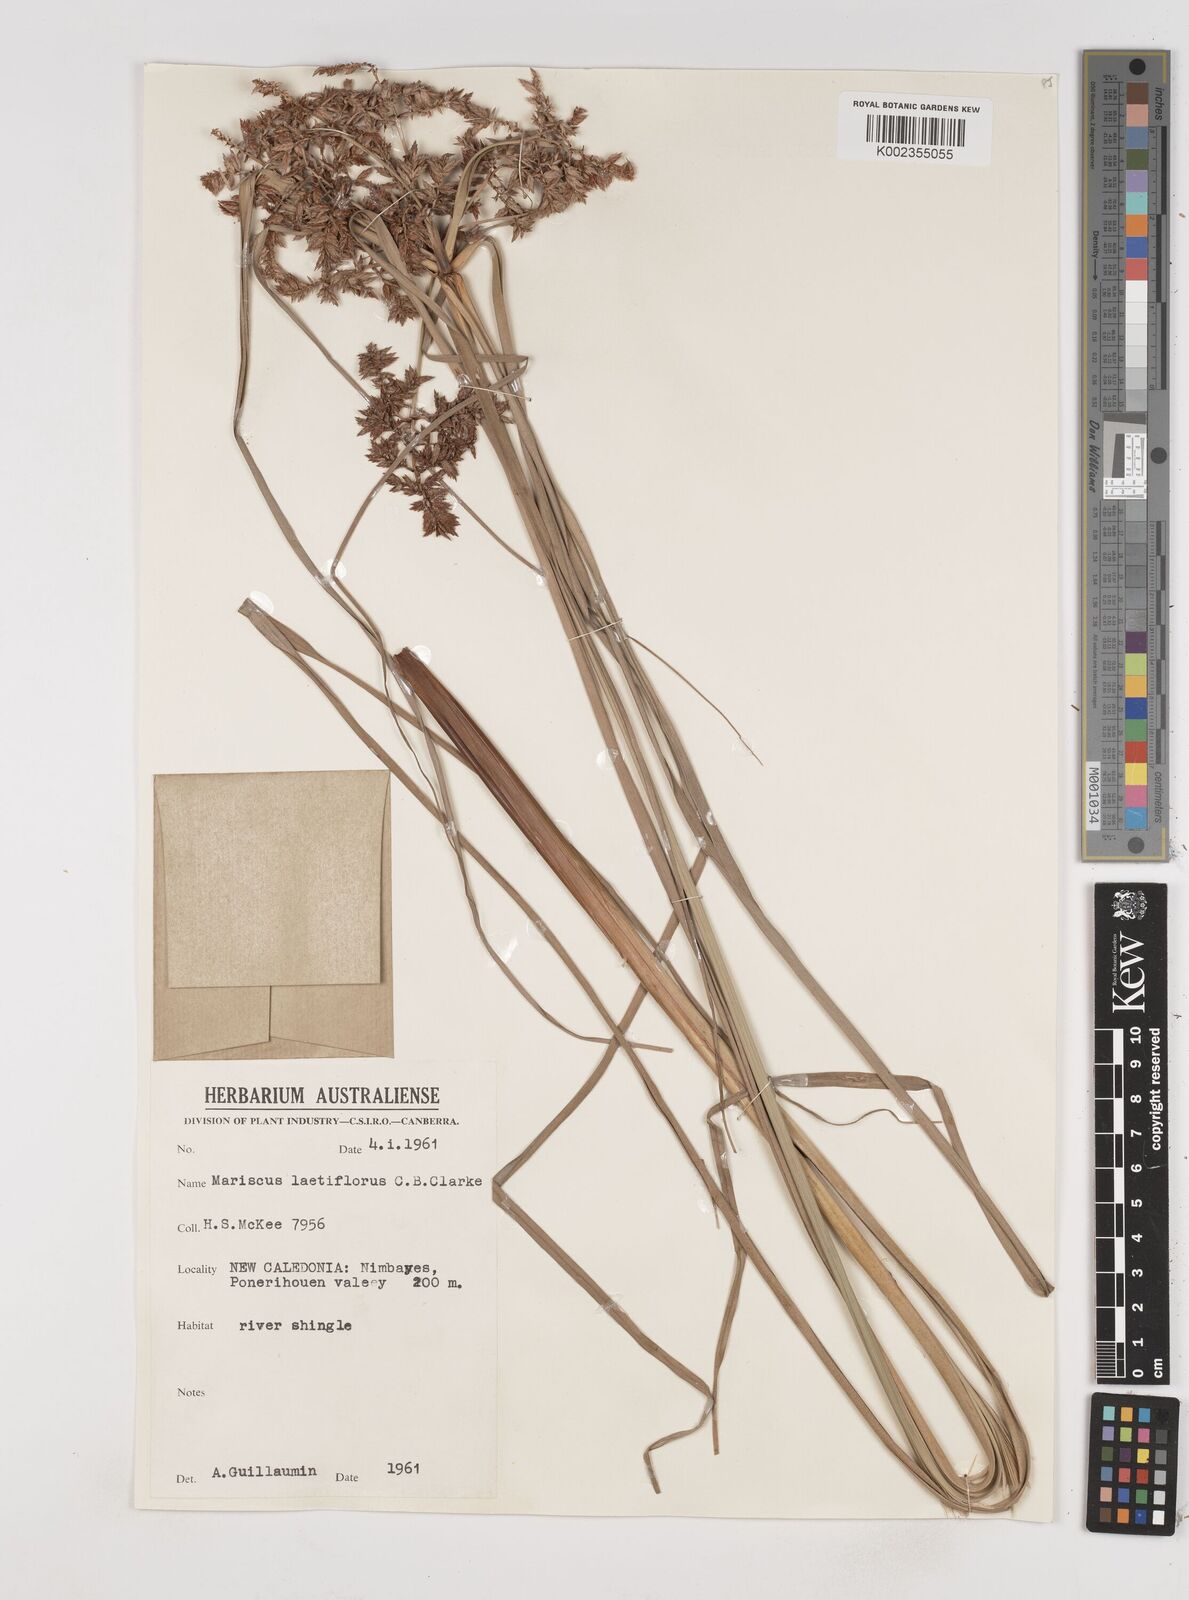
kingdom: Plantae
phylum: Tracheophyta
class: Liliopsida
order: Poales
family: Cyperaceae
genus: Cyperus
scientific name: Cyperus javanicus
